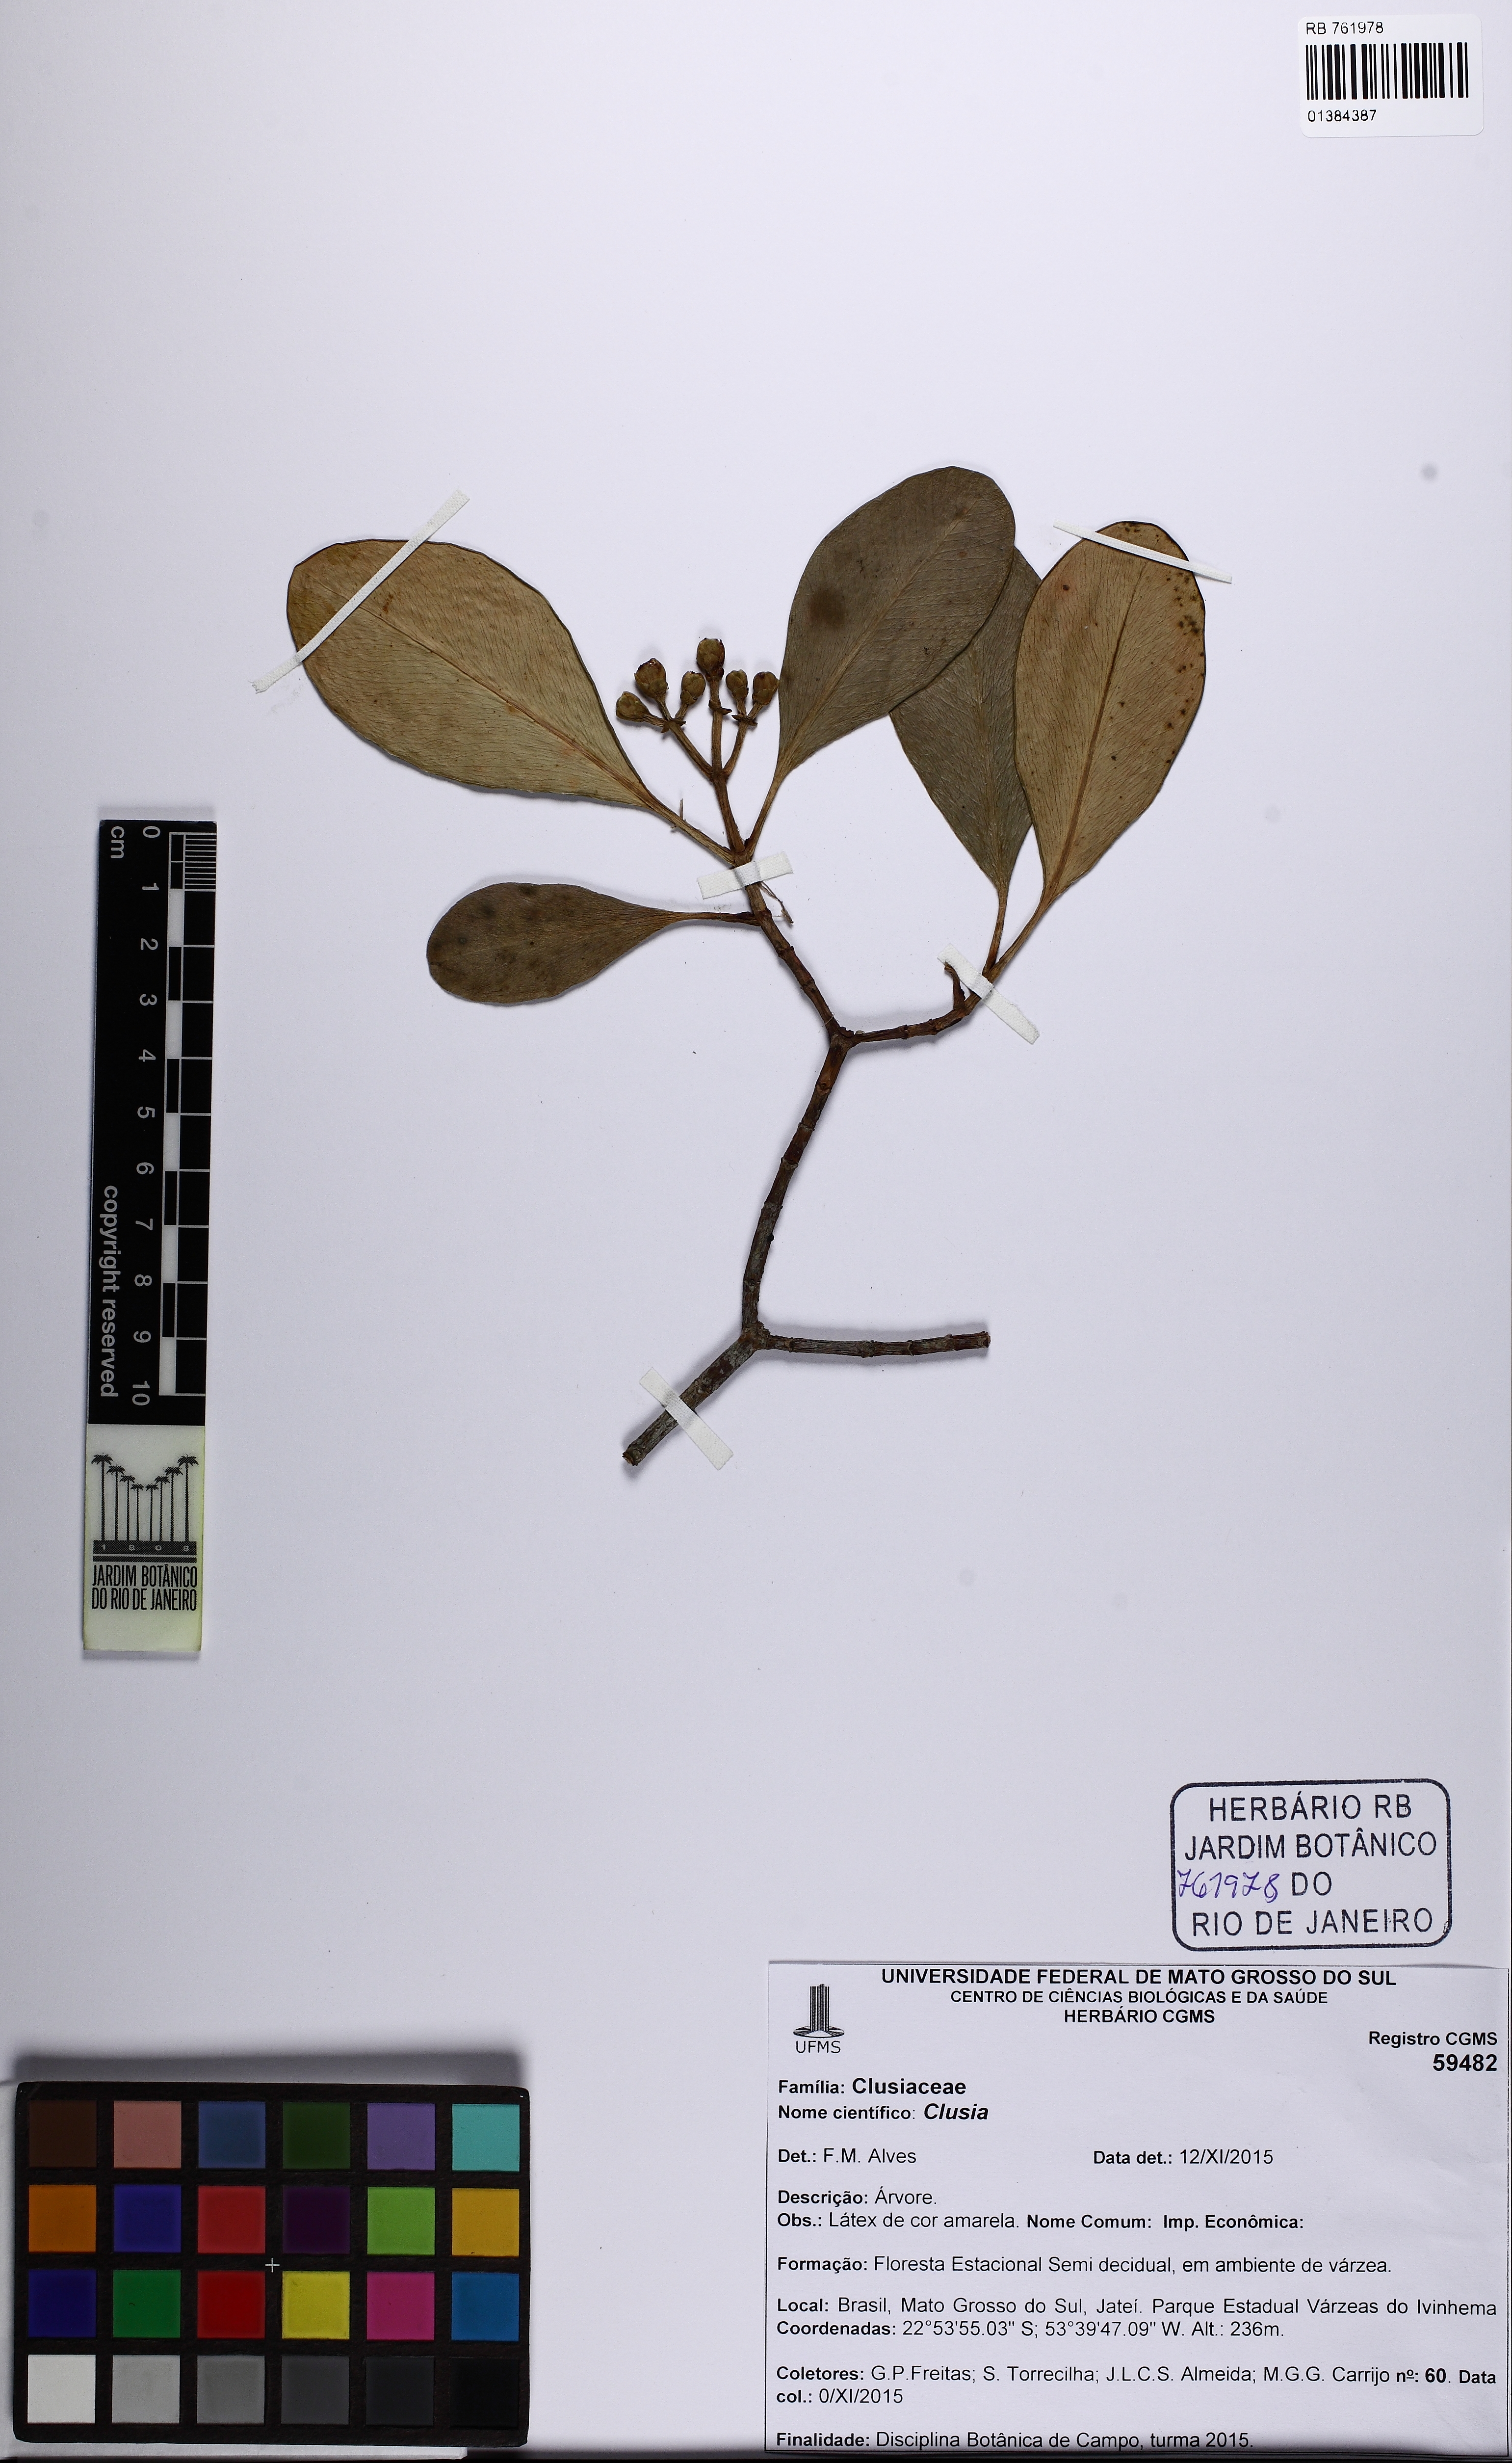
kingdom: Plantae
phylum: Tracheophyta
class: Magnoliopsida
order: Malpighiales
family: Clusiaceae
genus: Clusia
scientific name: Clusia grandiflora
